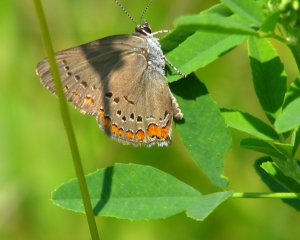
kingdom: Animalia
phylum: Arthropoda
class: Insecta
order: Lepidoptera
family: Lycaenidae
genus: Harkenclenus
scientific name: Harkenclenus titus
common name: Coral Hairstreak
